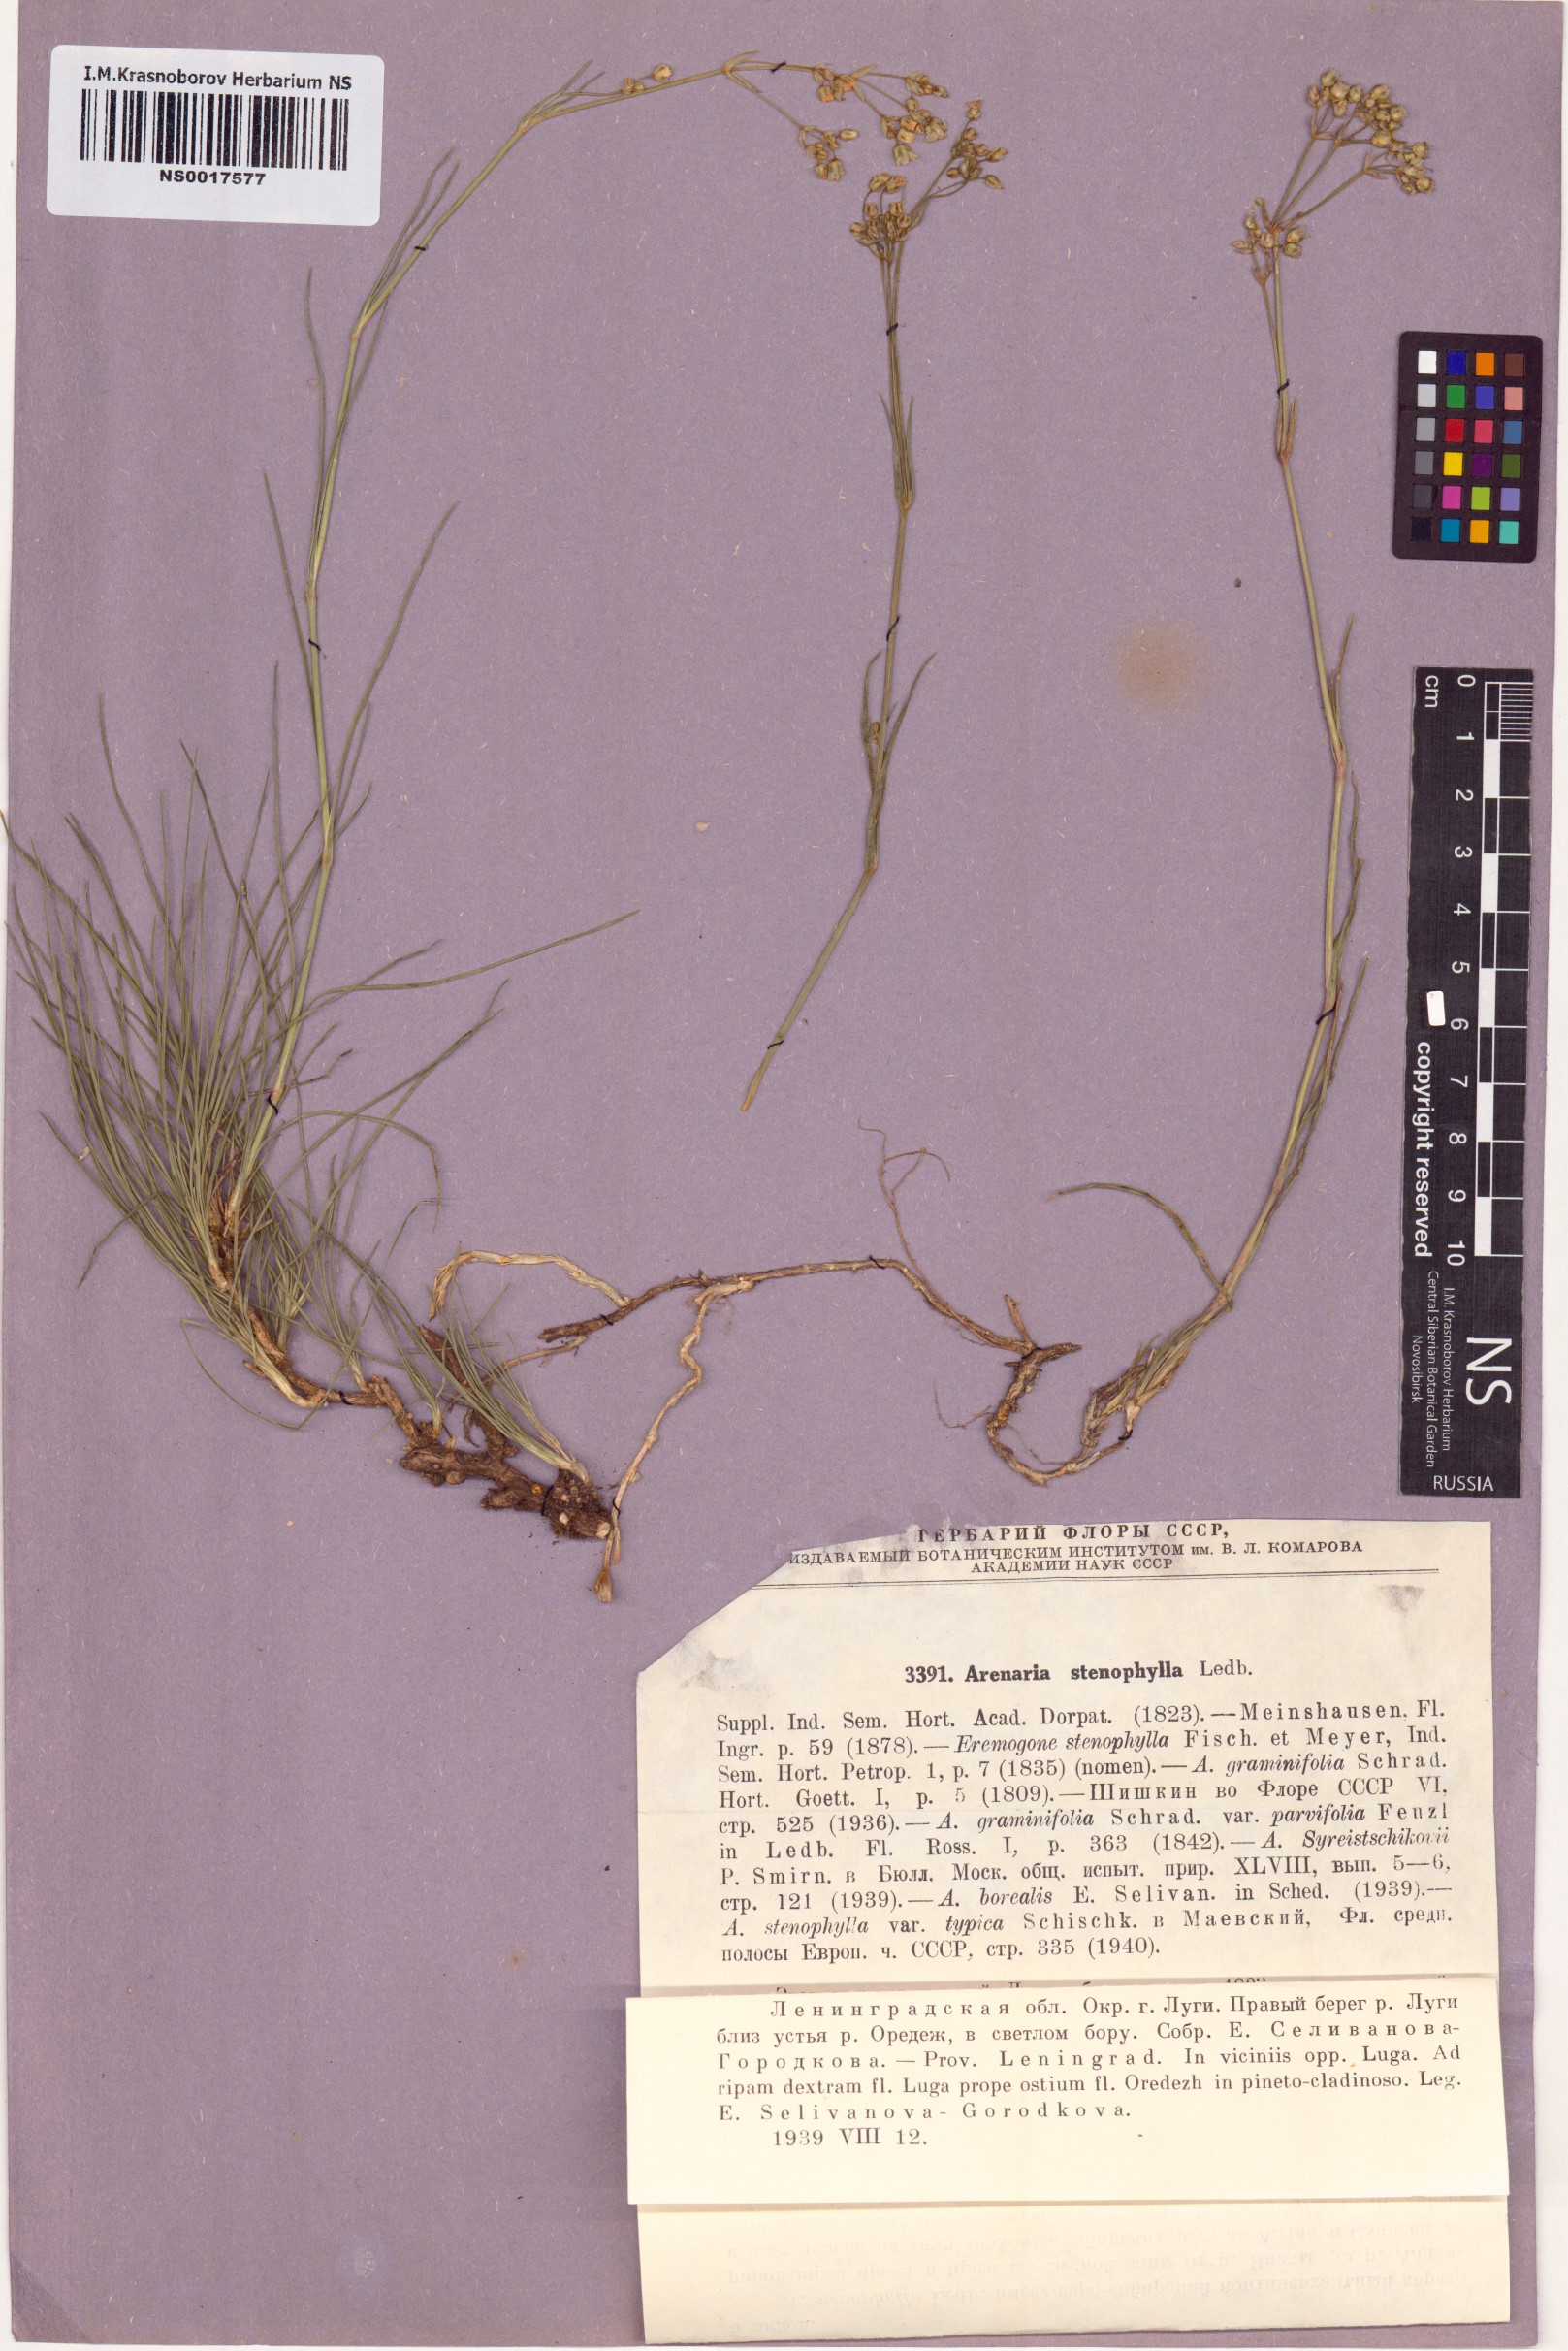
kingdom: Plantae
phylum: Tracheophyta
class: Magnoliopsida
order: Caryophyllales
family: Caryophyllaceae
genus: Eremogone
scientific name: Eremogone saxatilis
